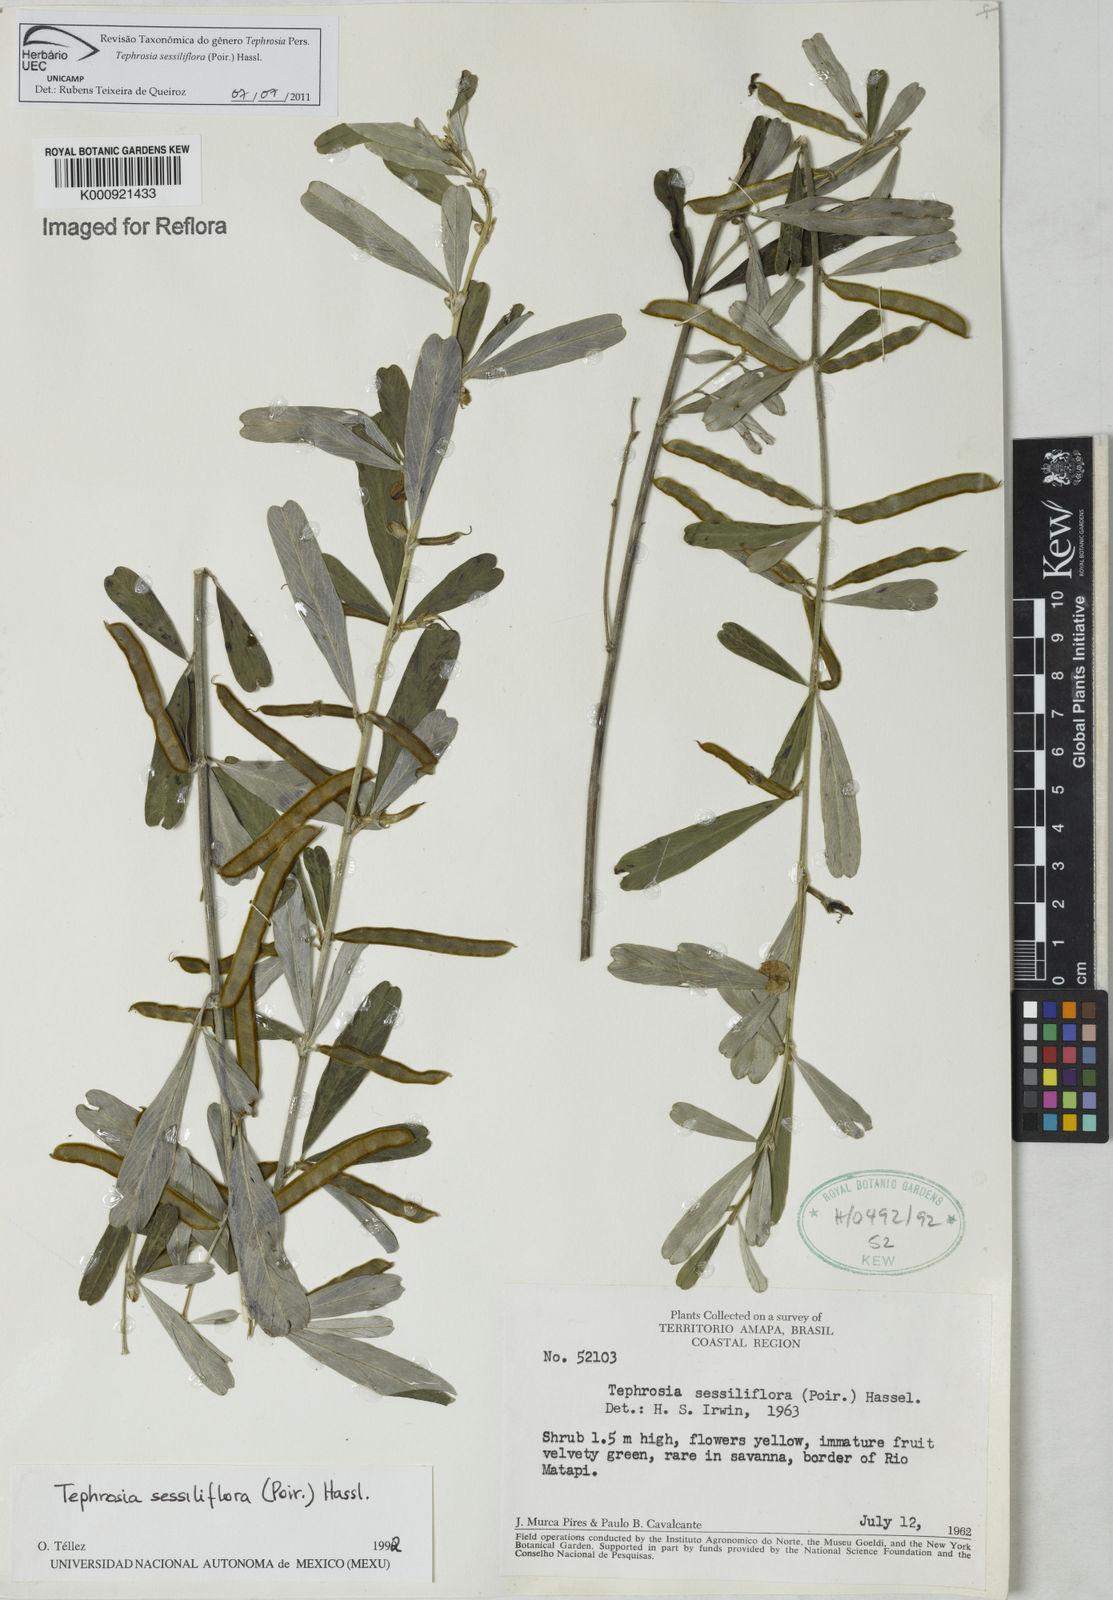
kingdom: Plantae
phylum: Tracheophyta
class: Magnoliopsida
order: Fabales
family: Fabaceae
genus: Tephrosia
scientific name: Tephrosia sessiliflora
